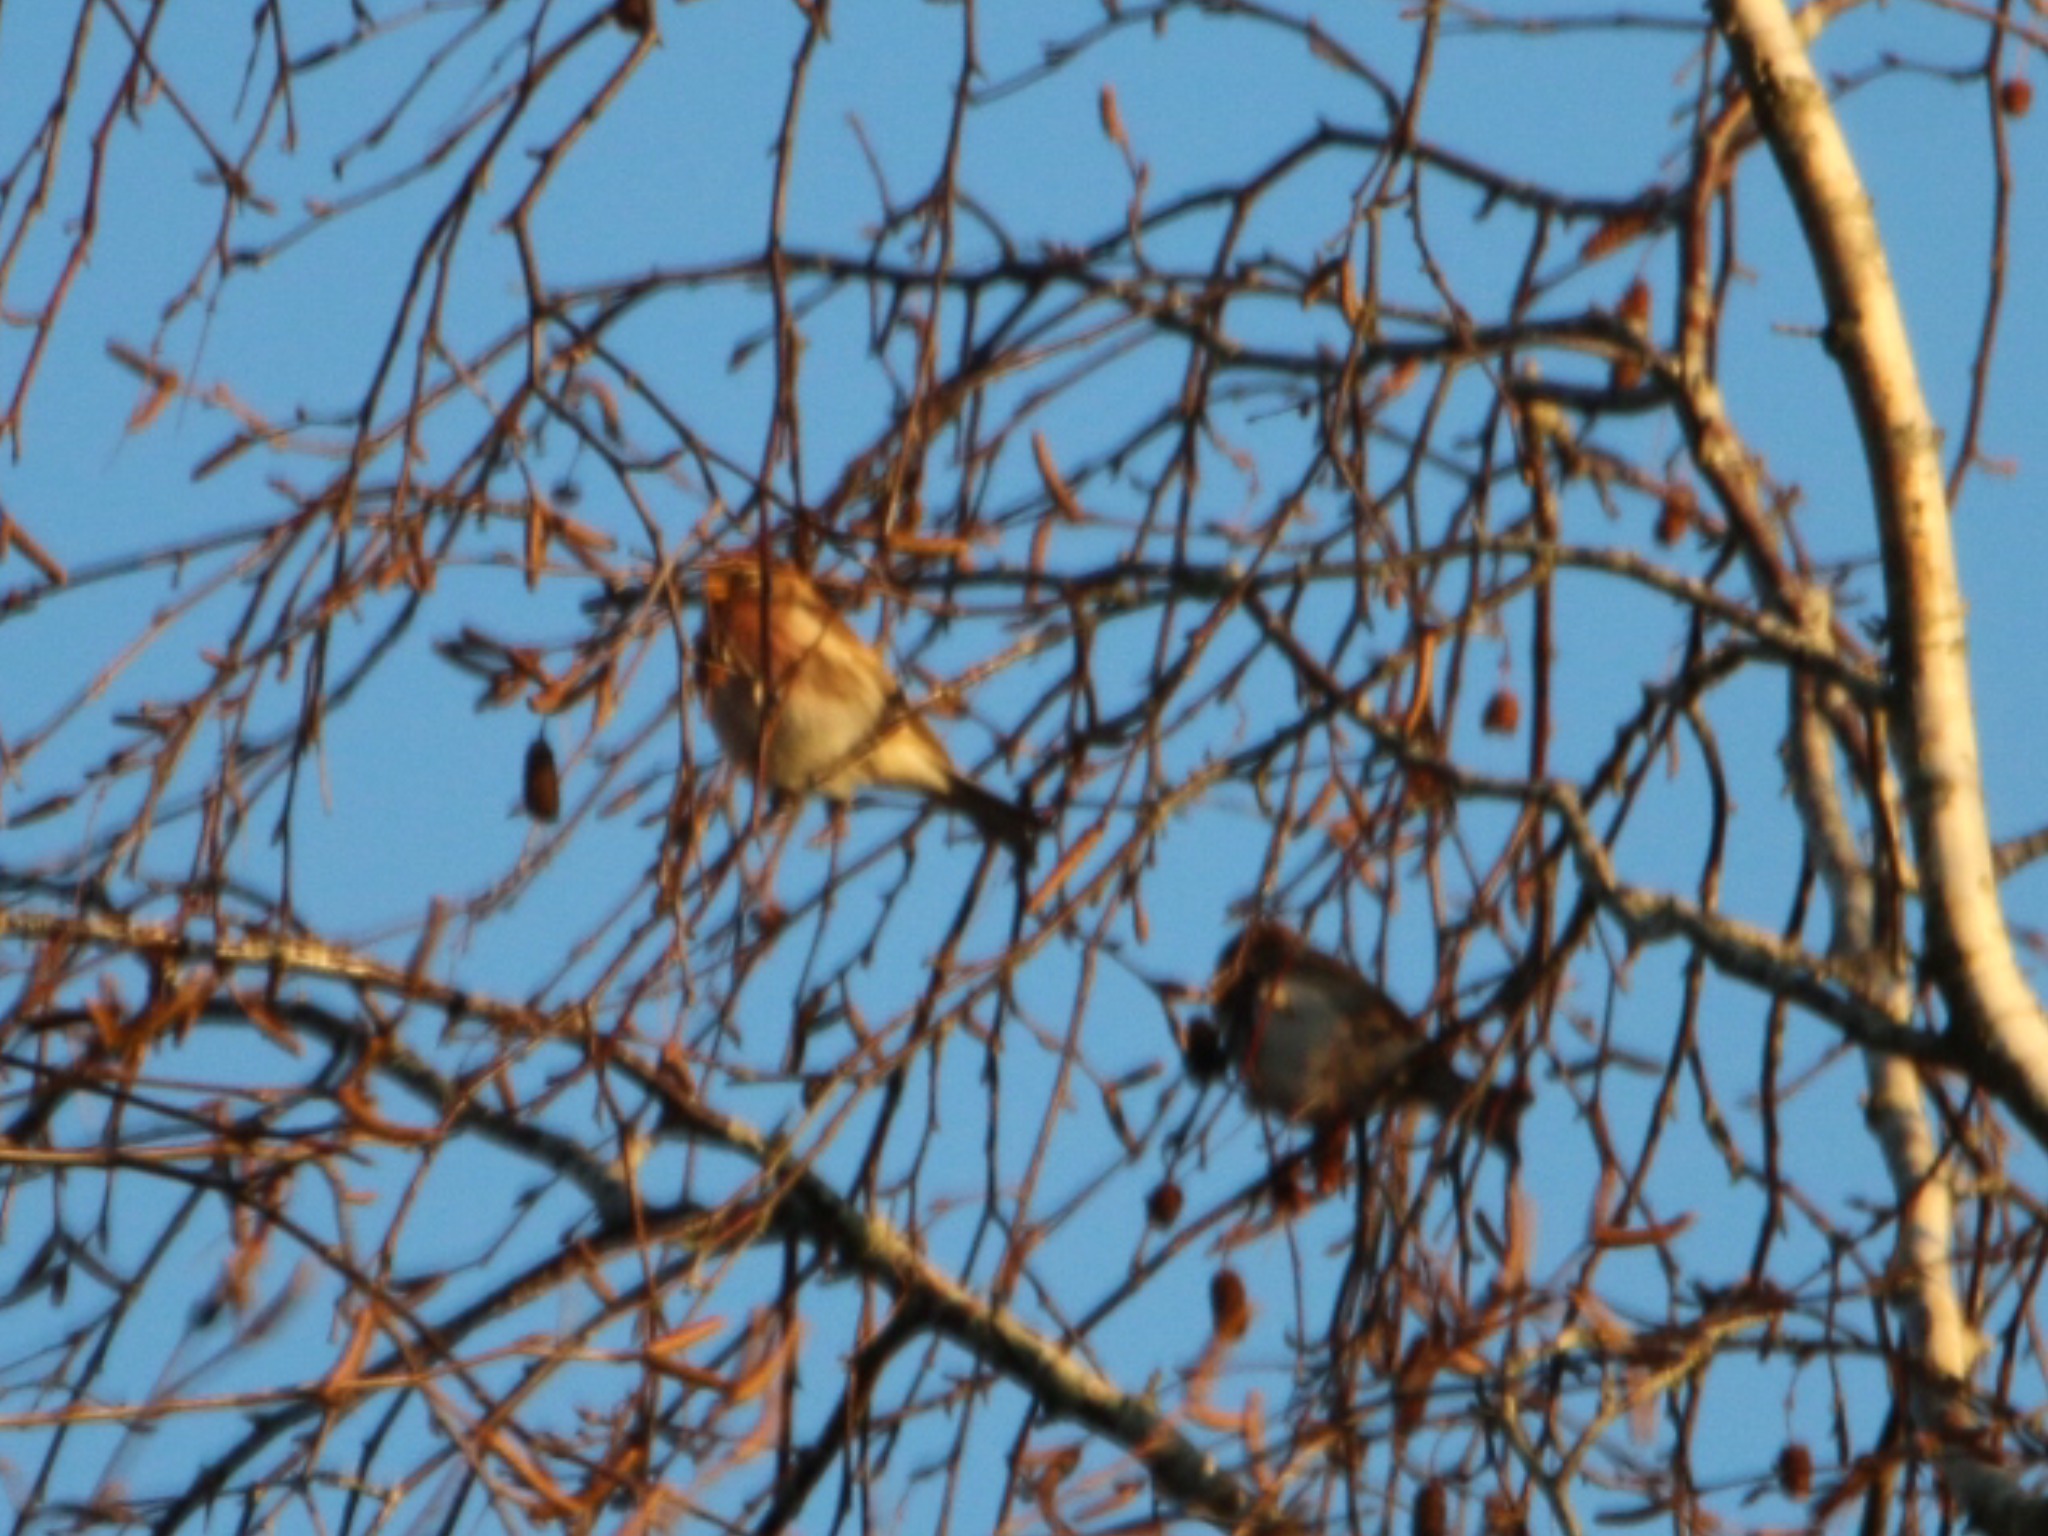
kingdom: Animalia
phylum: Chordata
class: Aves
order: Passeriformes
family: Fringillidae
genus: Acanthis
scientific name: Acanthis flammea
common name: Nordlig gråsisken
